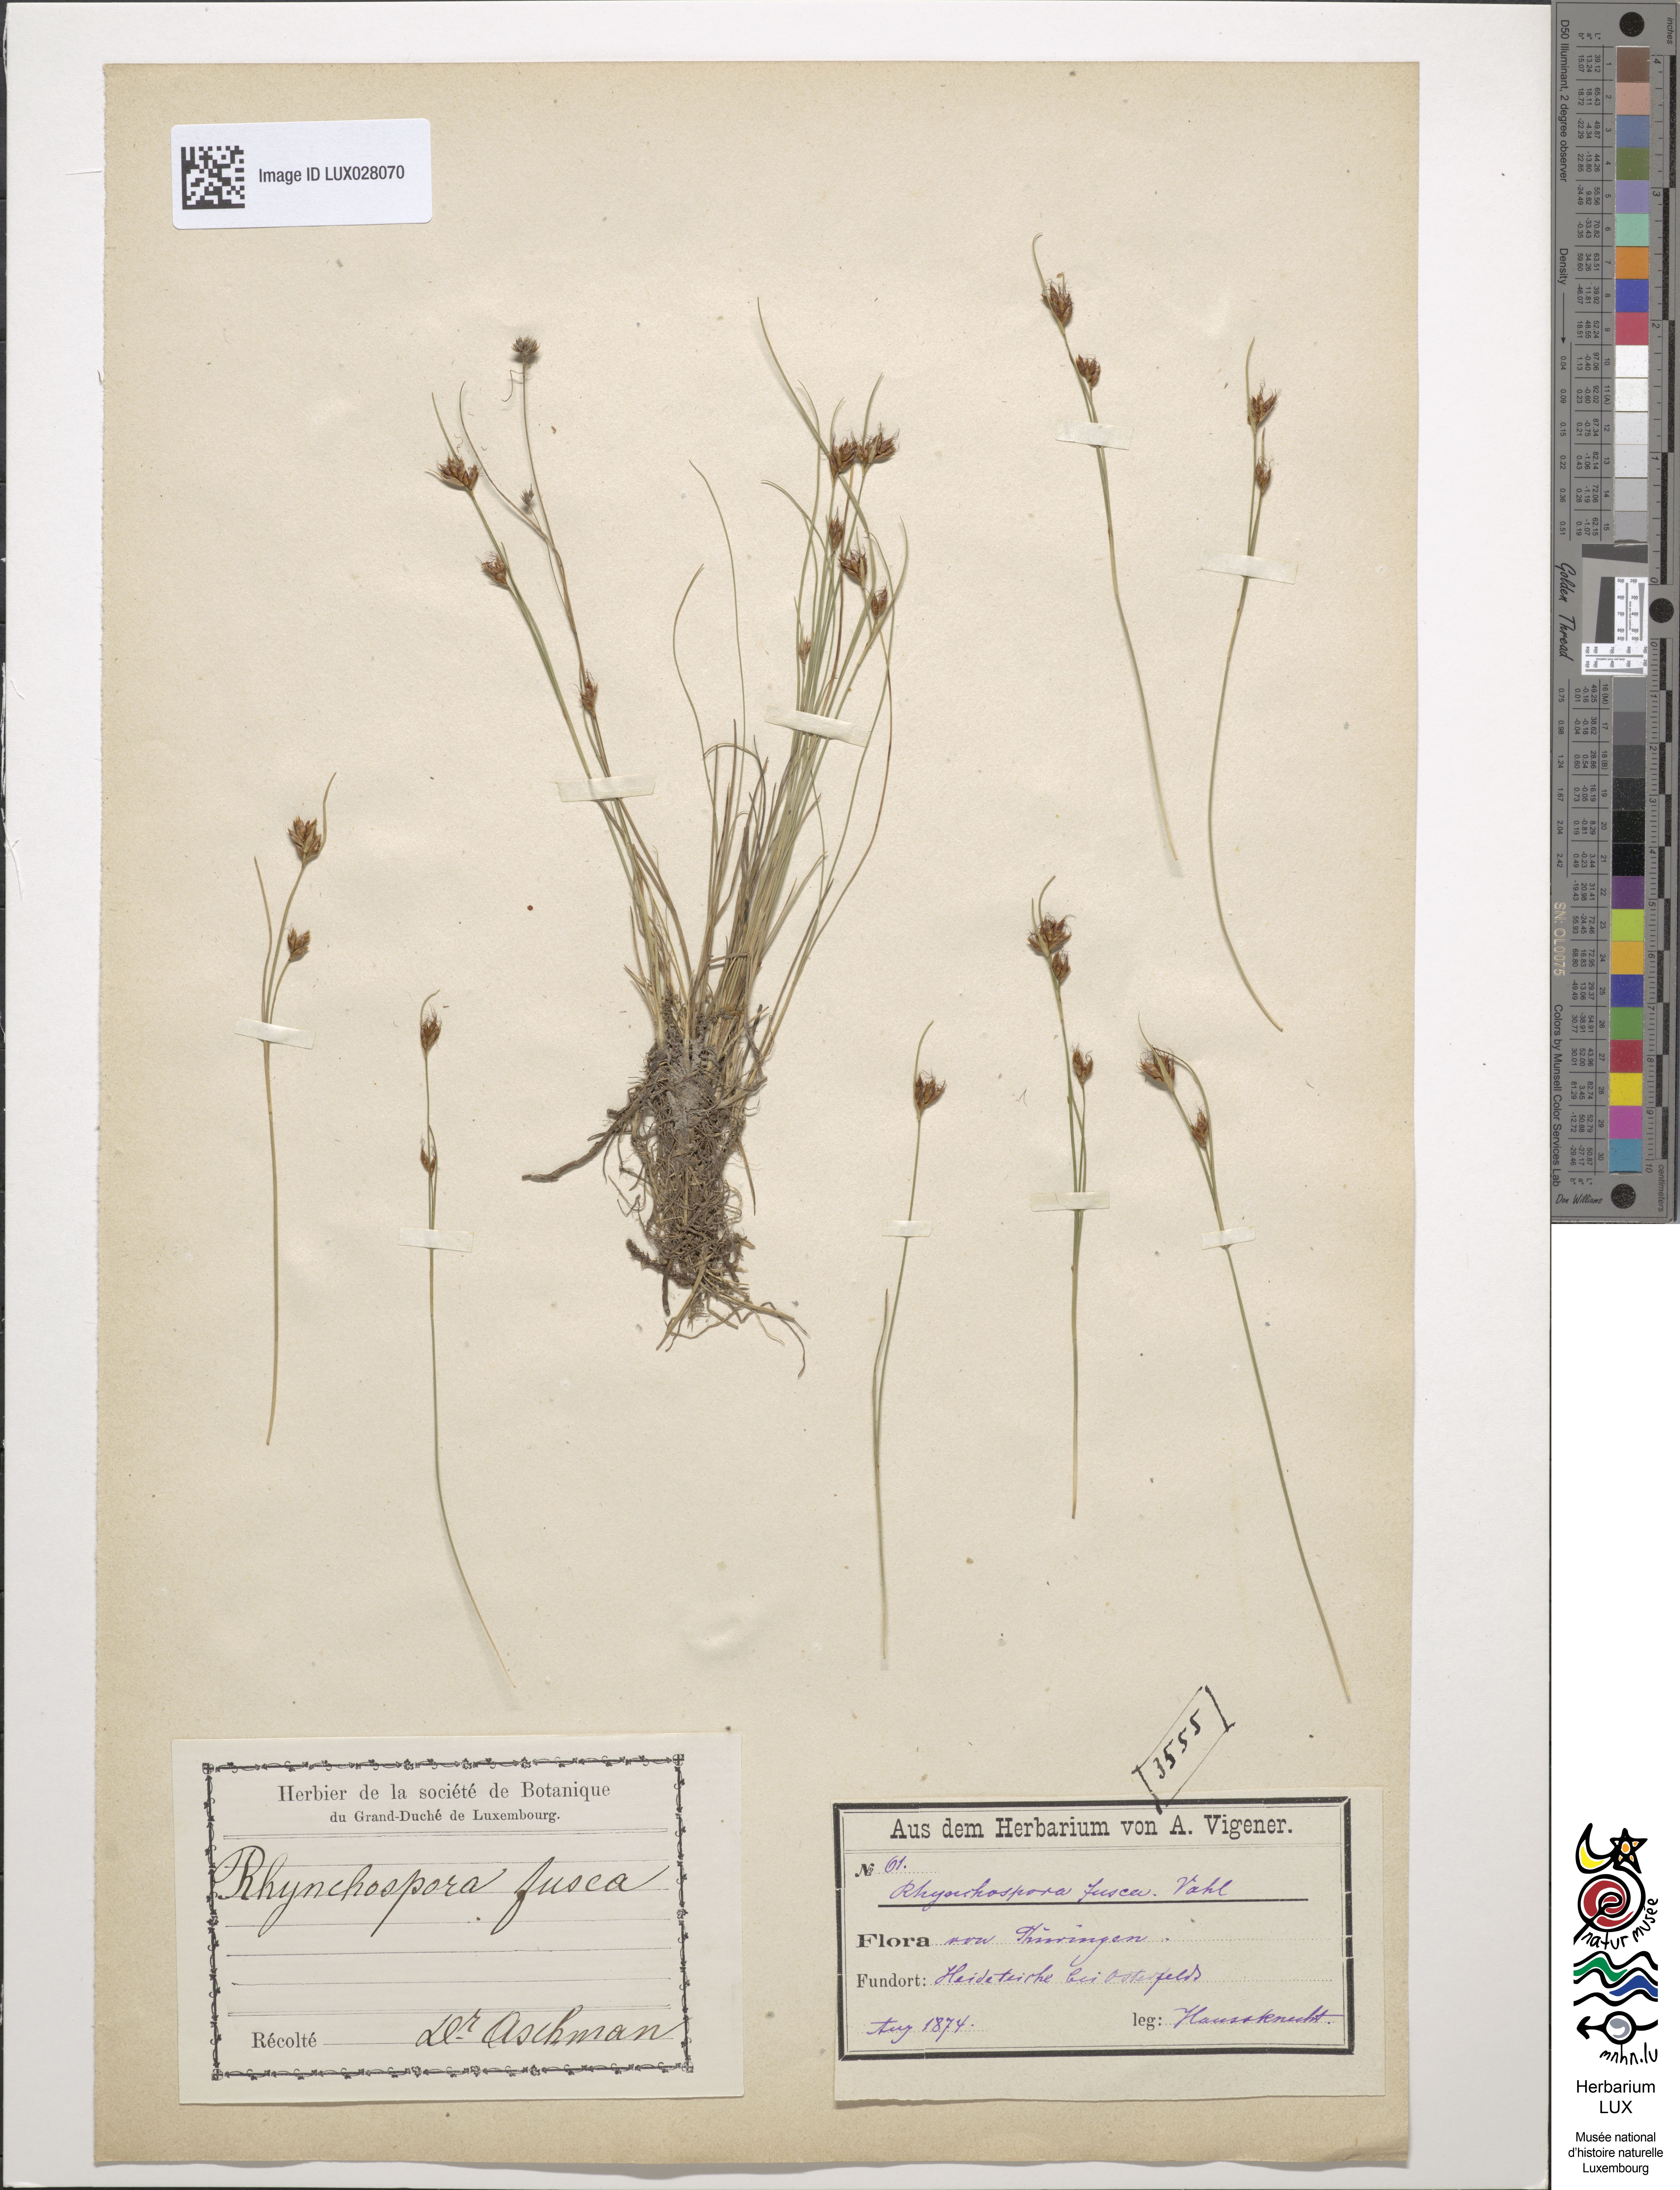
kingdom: Plantae
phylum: Tracheophyta
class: Liliopsida
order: Poales
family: Cyperaceae
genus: Rhynchospora
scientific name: Rhynchospora fusca
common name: Brown beak-sedge
